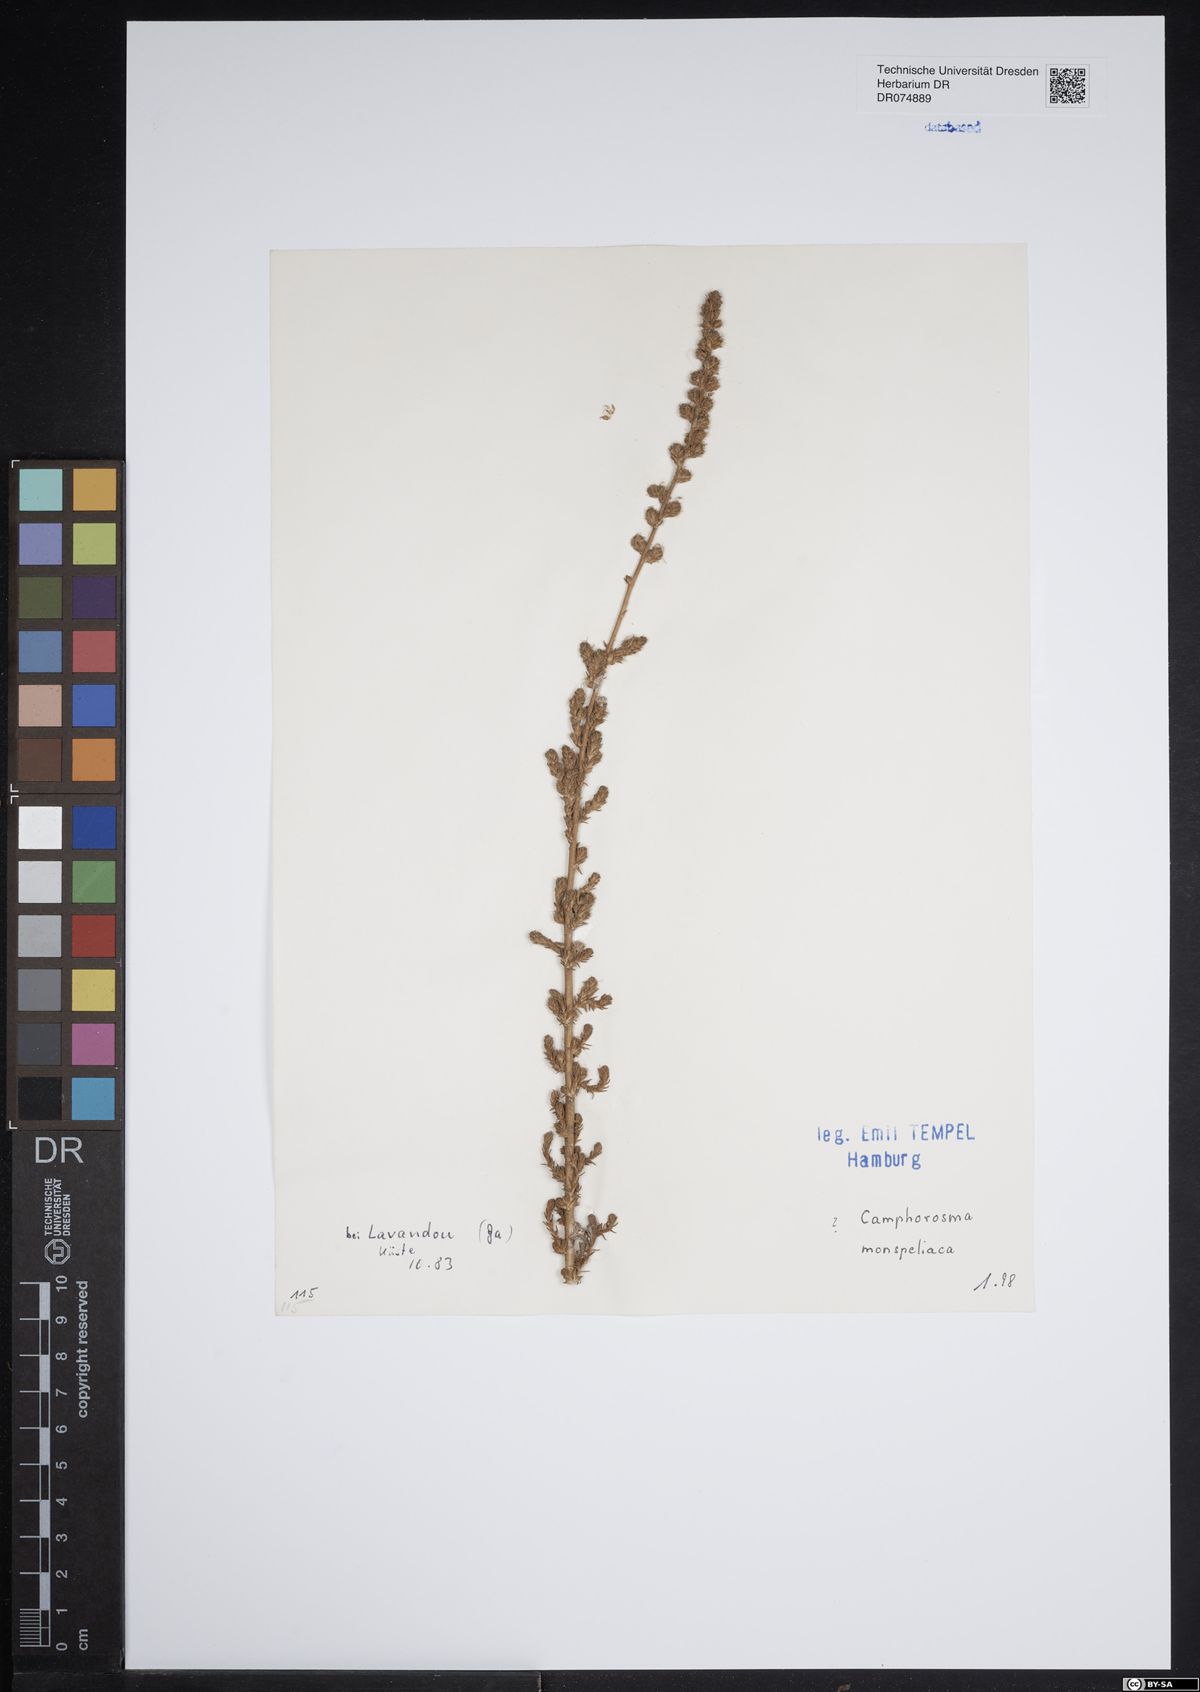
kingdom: Plantae
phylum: Tracheophyta
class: Magnoliopsida
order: Caryophyllales
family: Amaranthaceae
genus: Camphorosma
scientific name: Camphorosma monspeliaca
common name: Camphorfume
